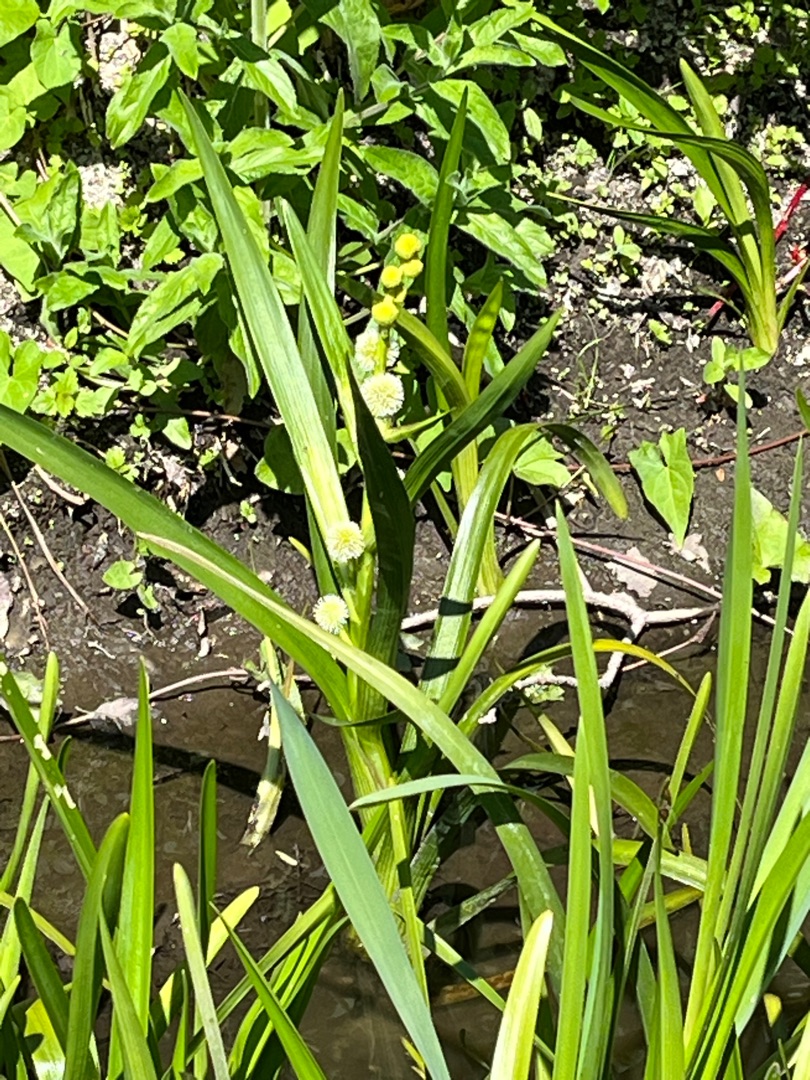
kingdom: Plantae
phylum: Tracheophyta
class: Liliopsida
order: Poales
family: Typhaceae
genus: Sparganium
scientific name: Sparganium emersum
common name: Enkelt pindsvineknop
